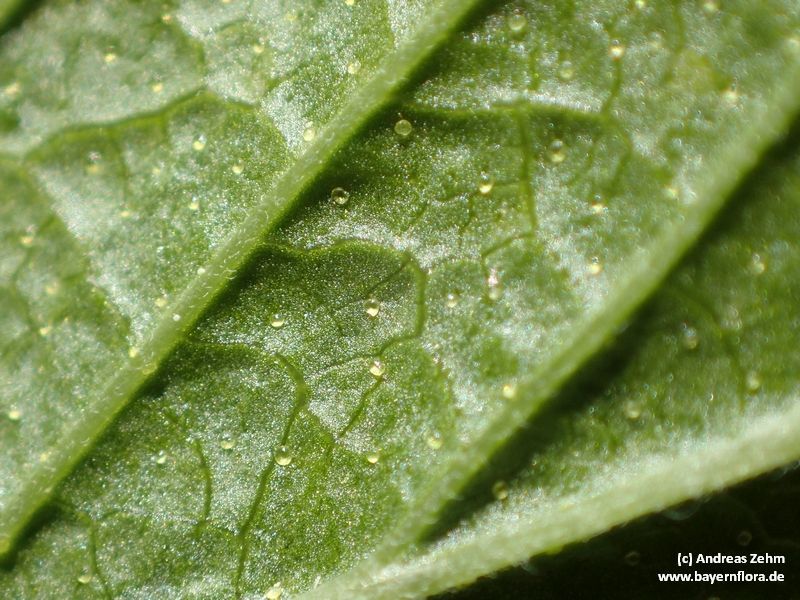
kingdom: Plantae
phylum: Tracheophyta
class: Magnoliopsida
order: Saxifragales
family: Grossulariaceae
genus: Ribes
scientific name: Ribes nigrum
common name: Black currant
